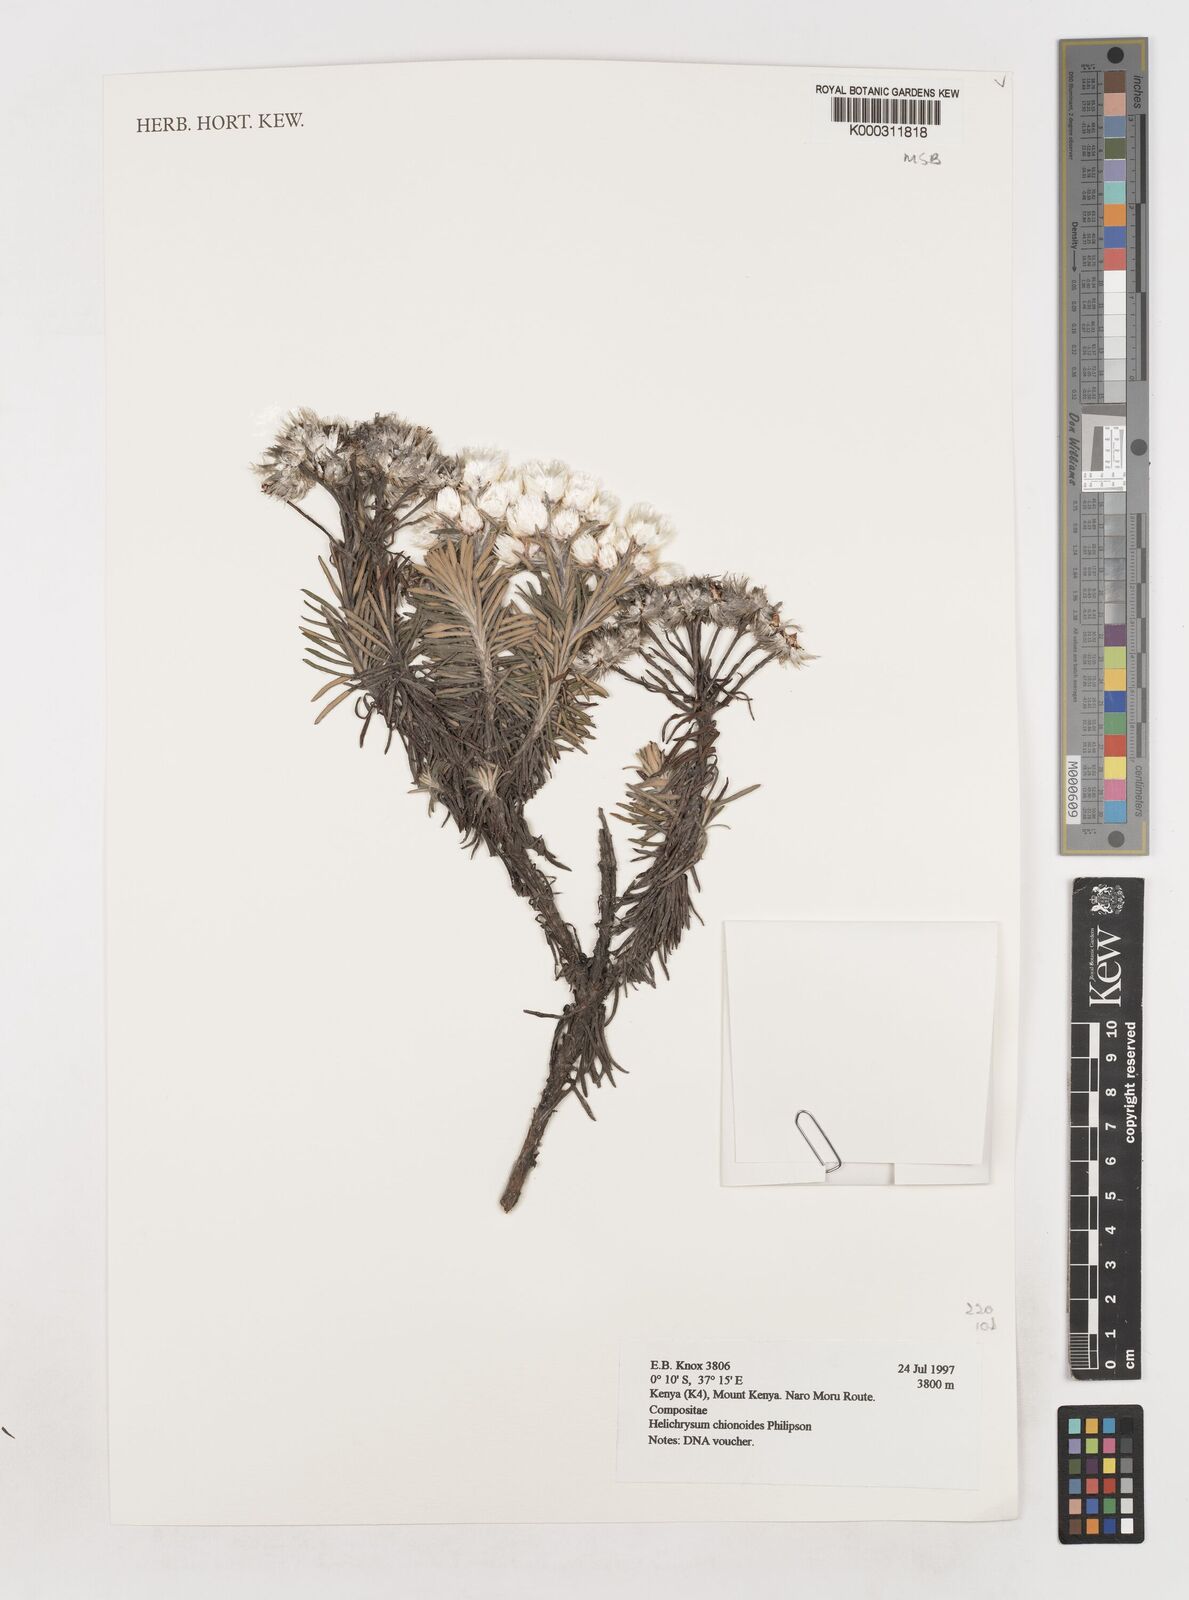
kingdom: Plantae
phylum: Tracheophyta
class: Magnoliopsida
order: Asterales
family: Asteraceae
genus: Helichrysum
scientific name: Helichrysum chionoides
